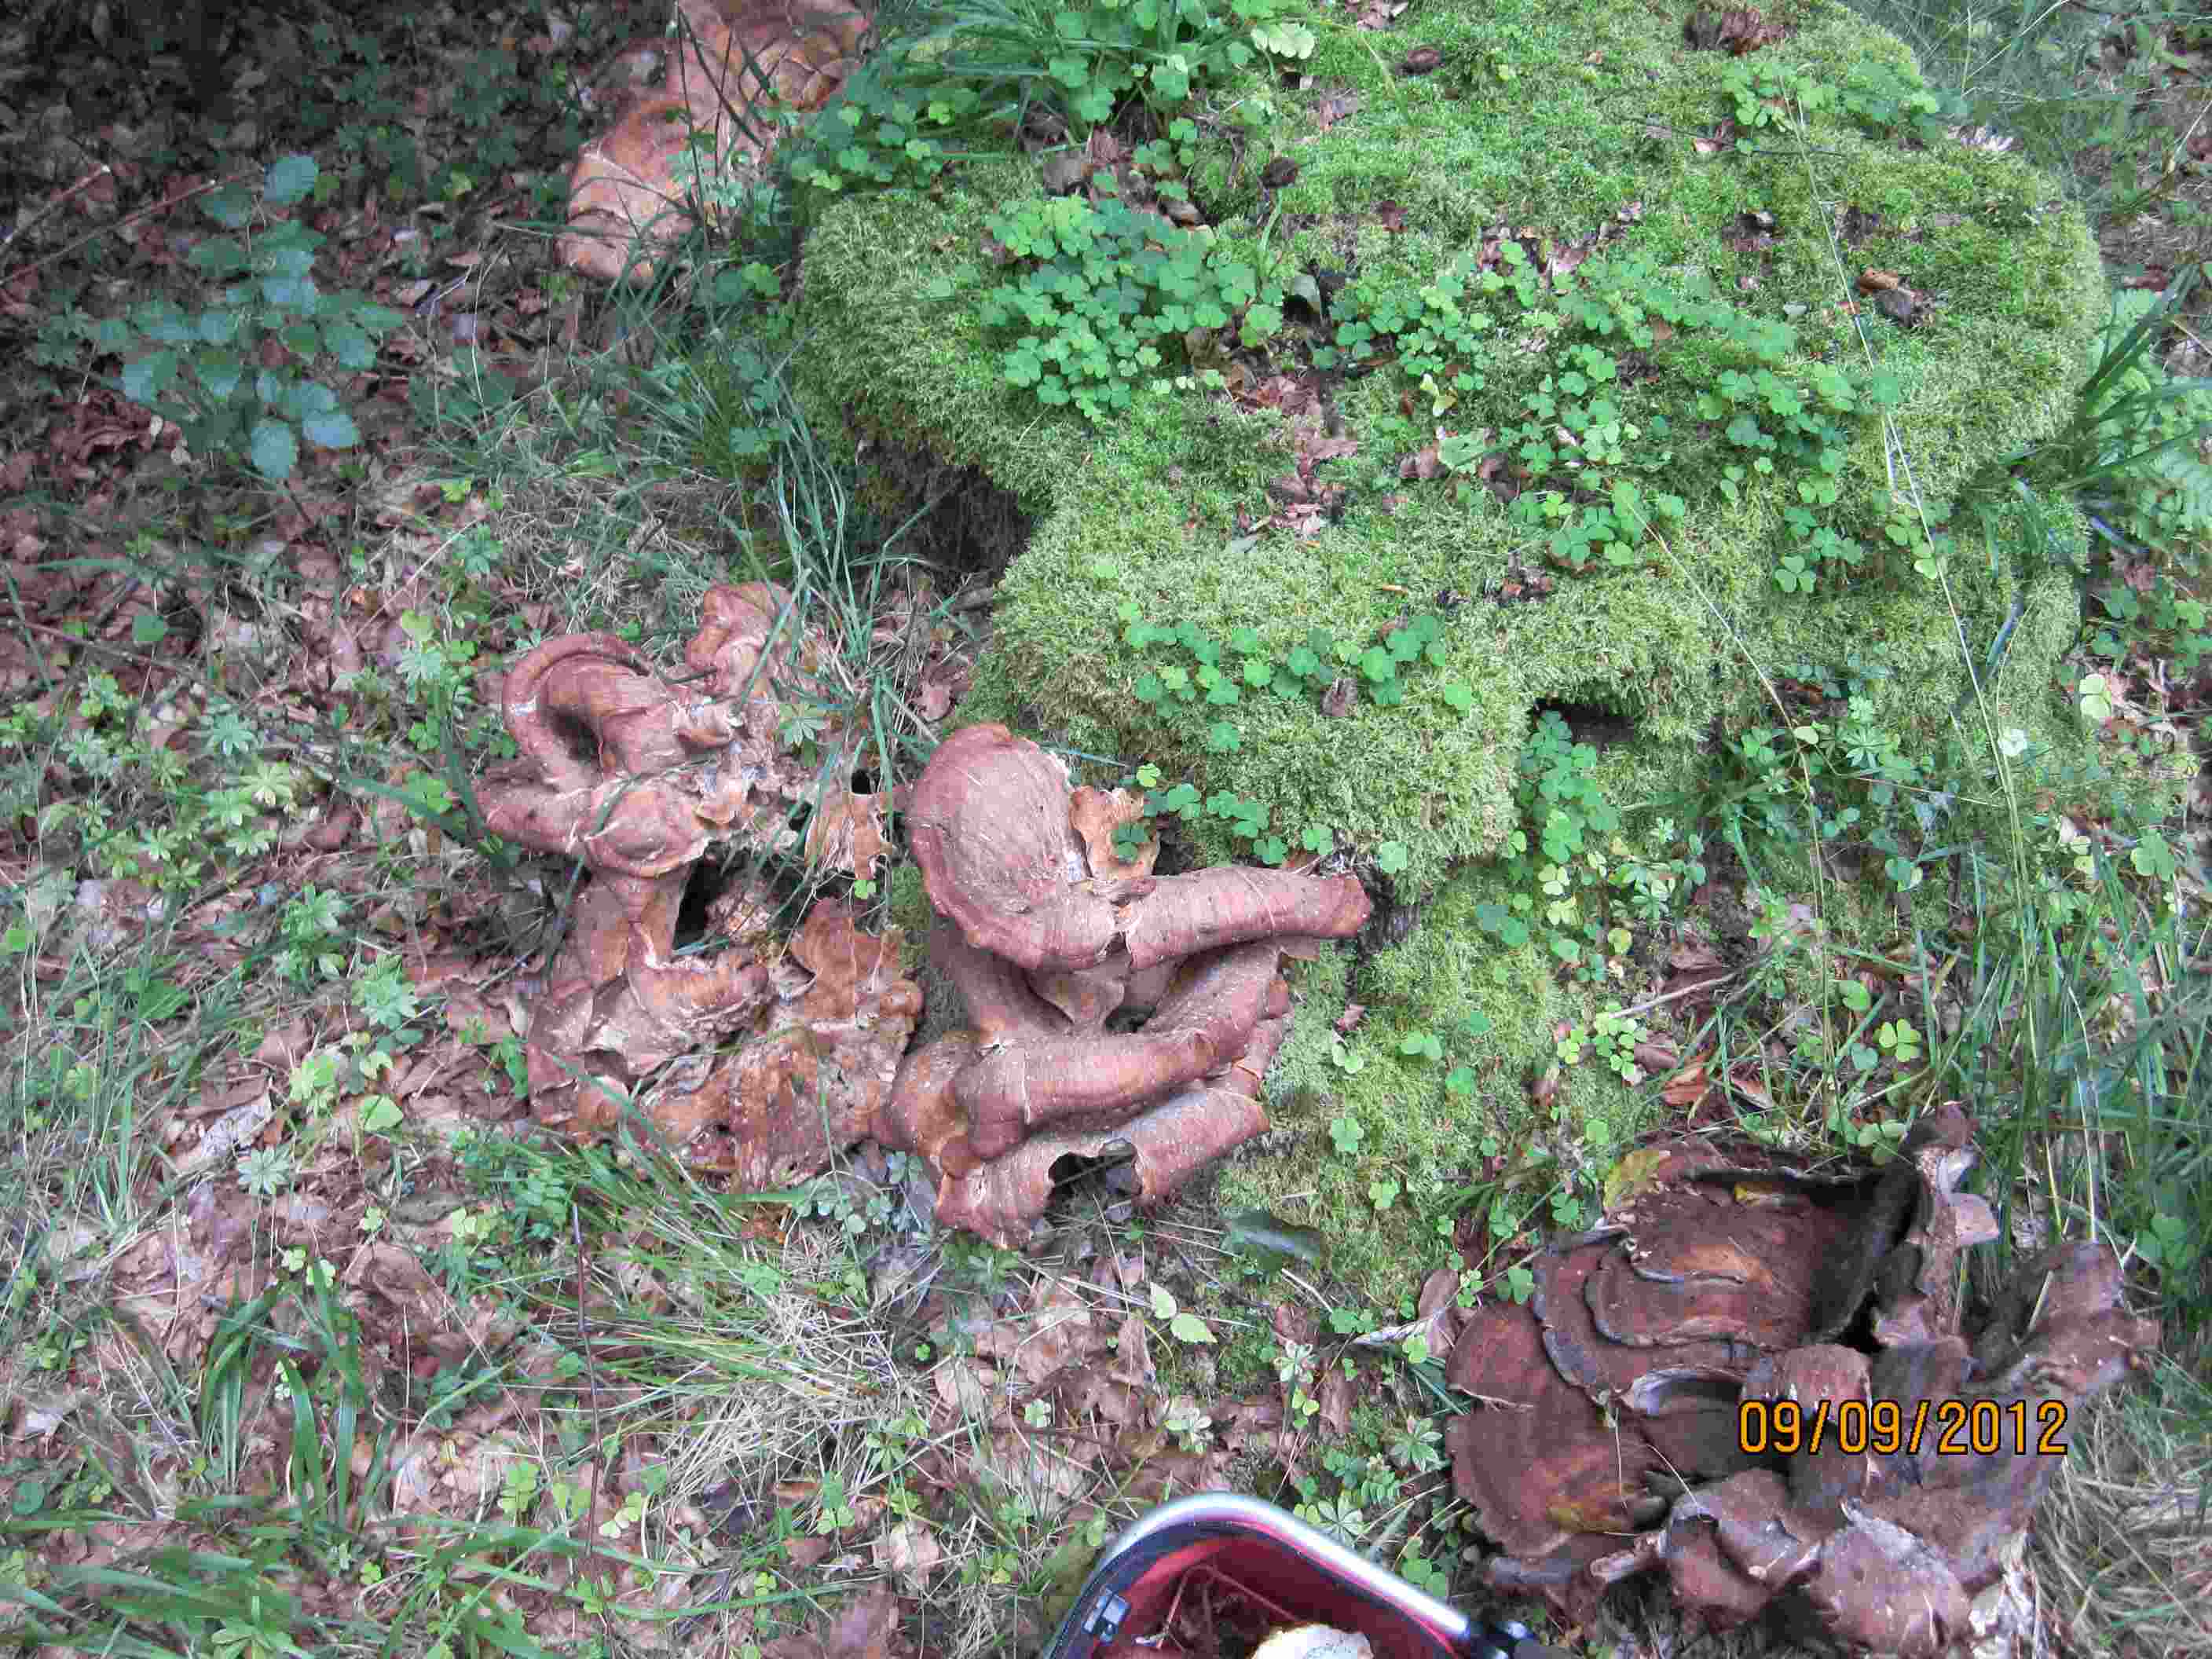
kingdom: Fungi
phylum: Basidiomycota
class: Agaricomycetes
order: Polyporales
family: Meripilaceae
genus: Meripilus
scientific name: Meripilus giganteus
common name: kæmpeporesvamp
